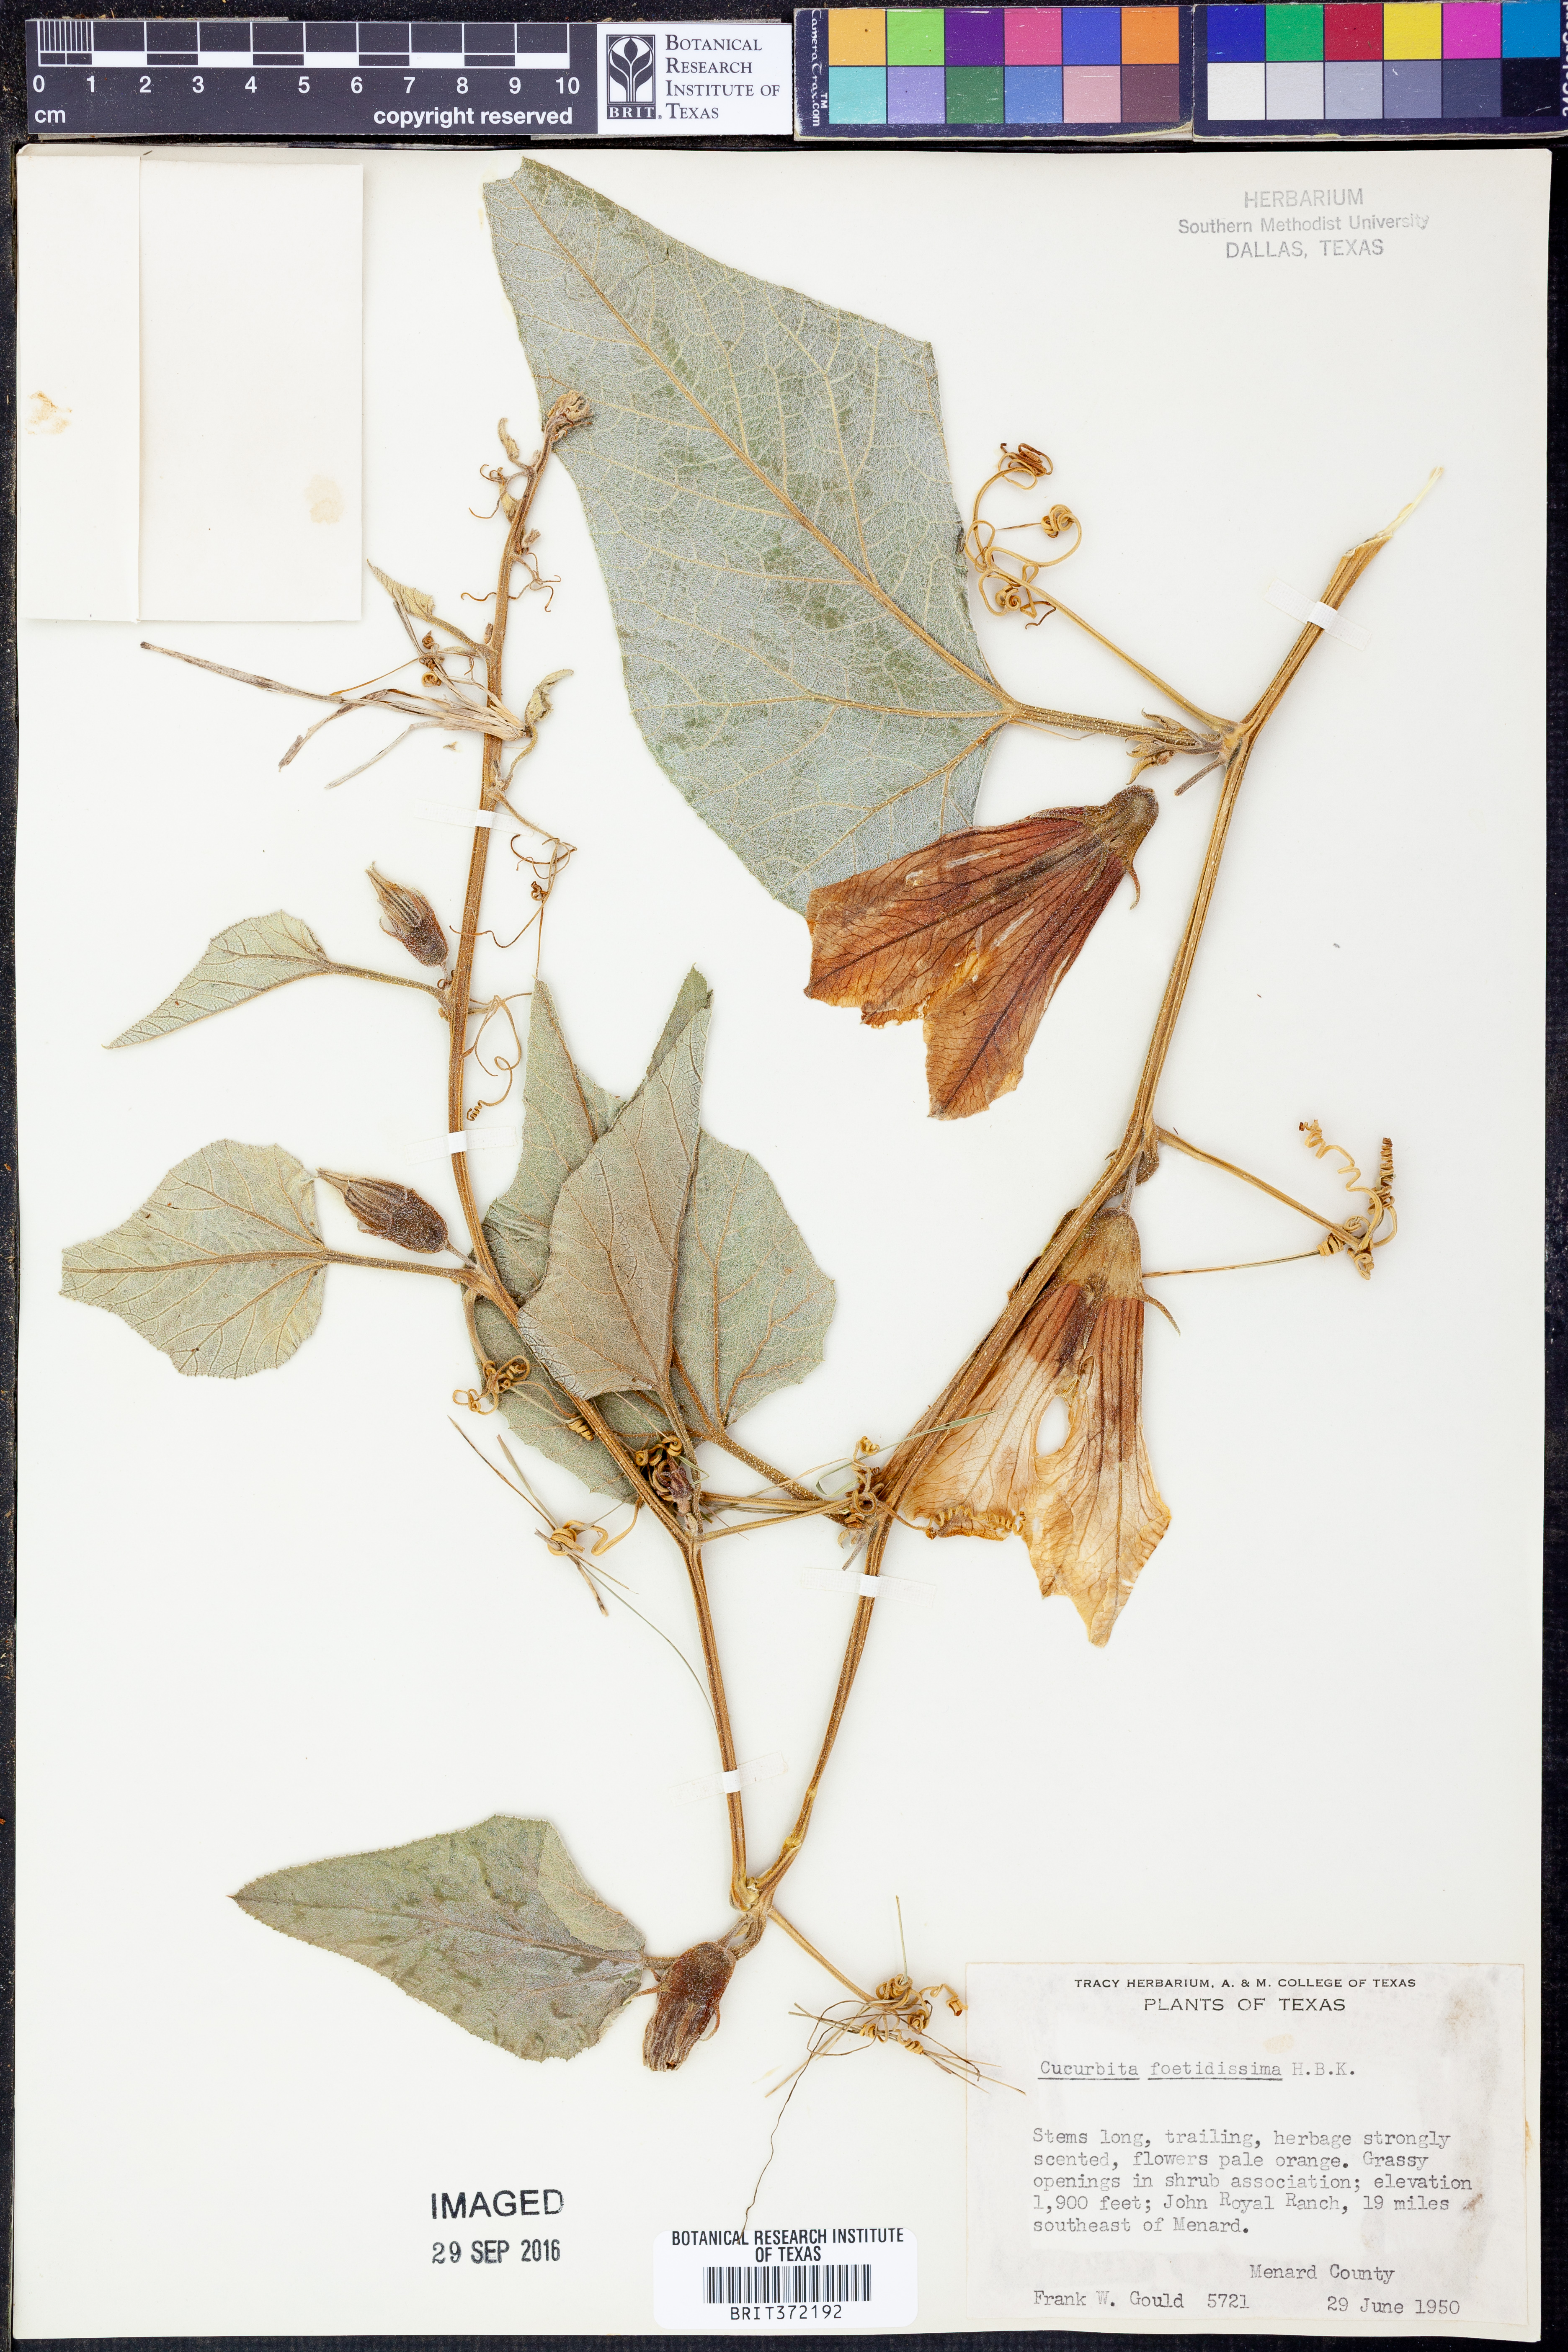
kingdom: Plantae
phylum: Tracheophyta
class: Magnoliopsida
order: Cucurbitales
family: Cucurbitaceae
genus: Cucurbita
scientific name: Cucurbita foetidissima
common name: Buffalo gourd
